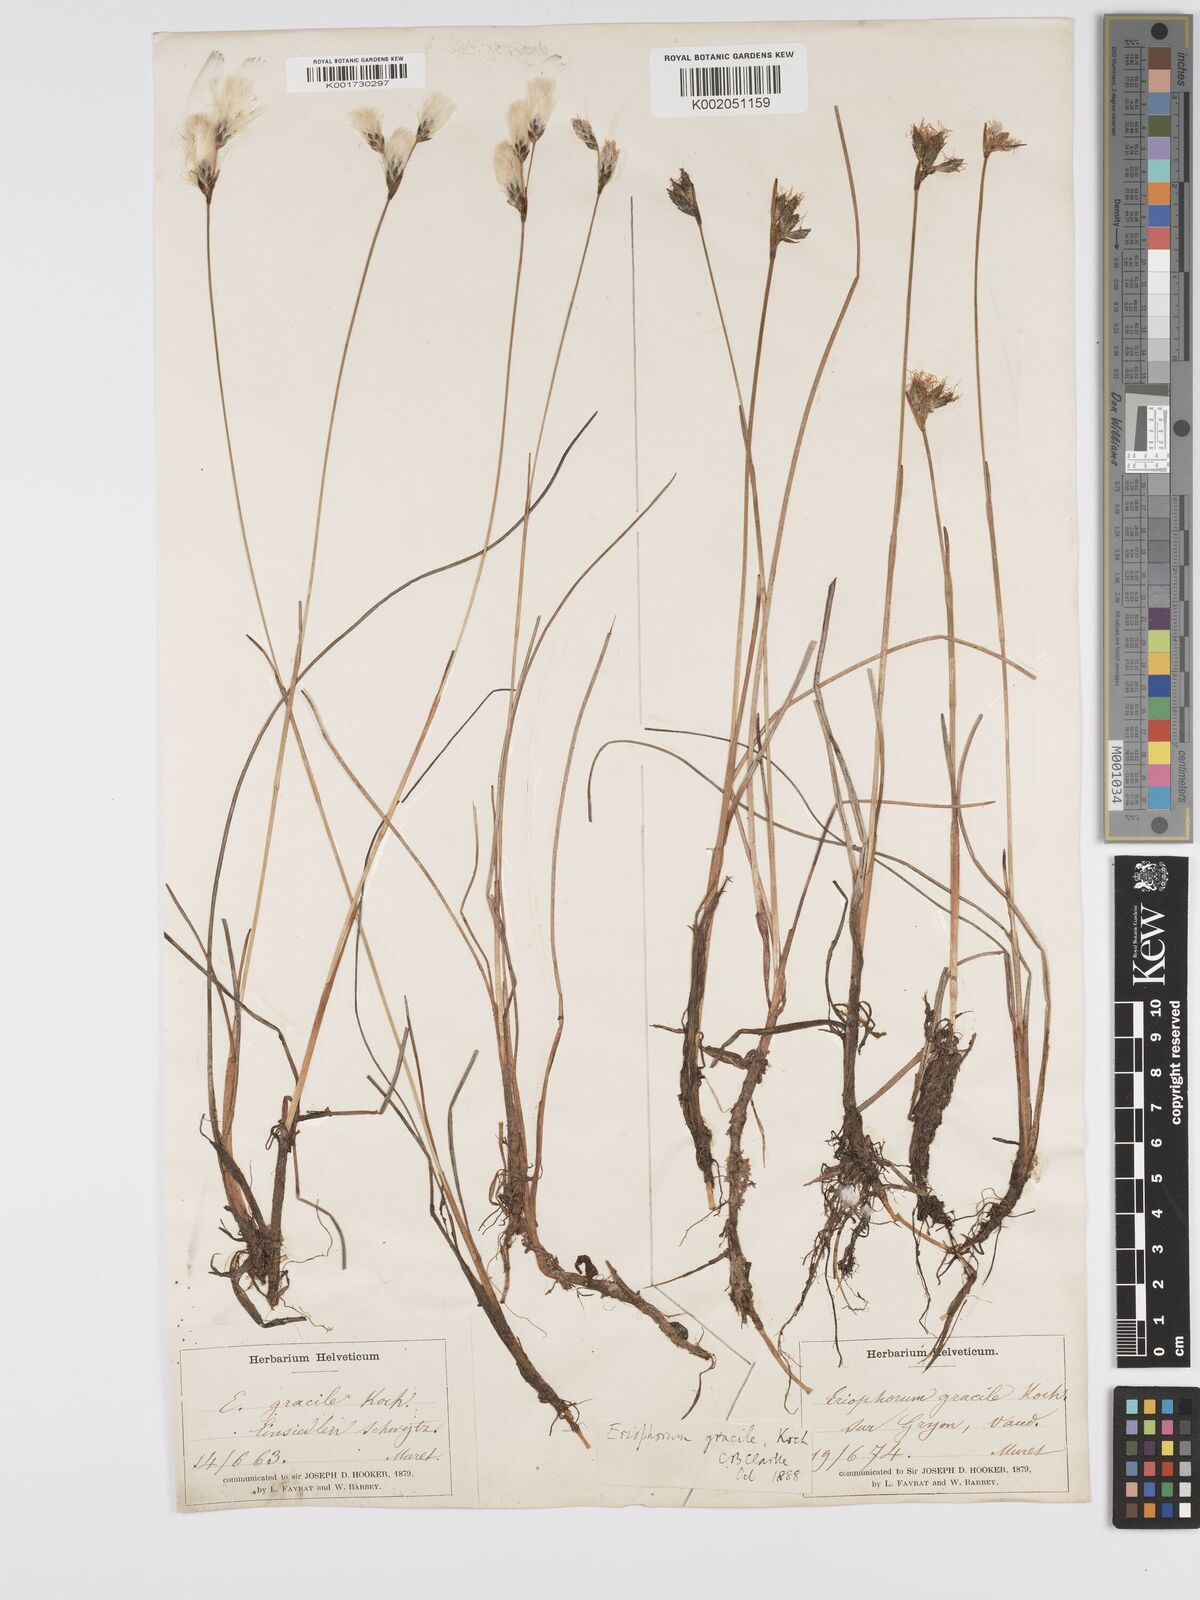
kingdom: Plantae
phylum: Tracheophyta
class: Liliopsida
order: Poales
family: Cyperaceae
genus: Eriophorum
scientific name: Eriophorum gracile
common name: Slender cottongrass
